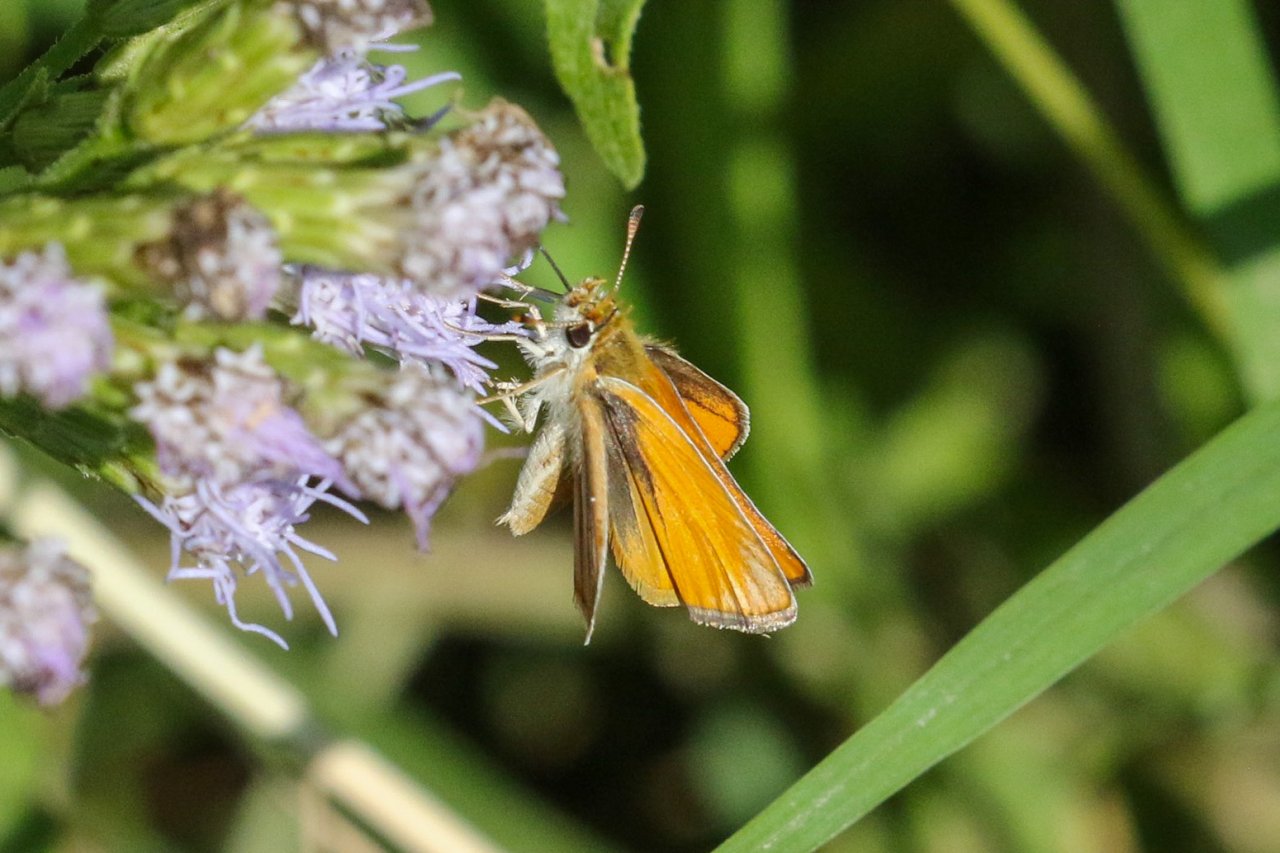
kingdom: Animalia
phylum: Arthropoda
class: Insecta
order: Lepidoptera
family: Hesperiidae
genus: Copaeodes
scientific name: Copaeodes minima
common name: Southern Skipperling
